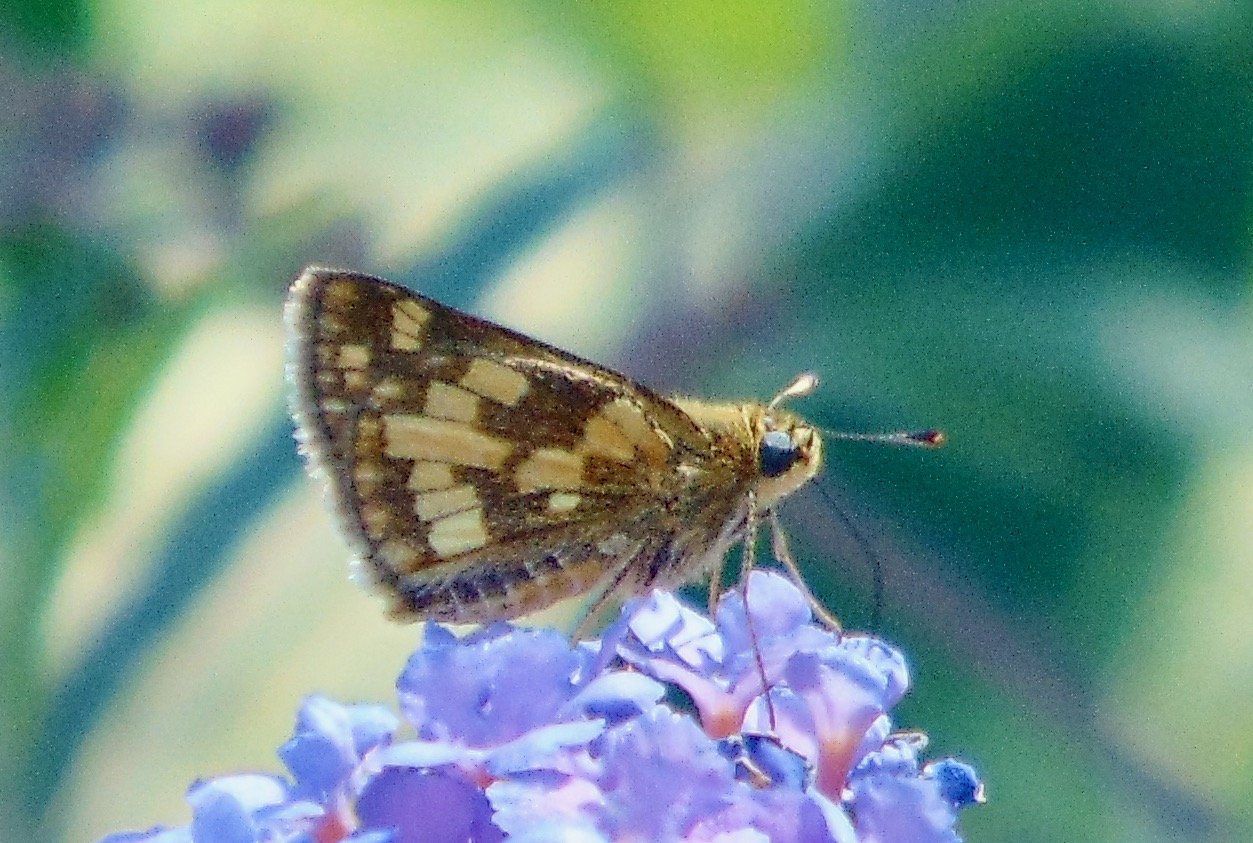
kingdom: Animalia
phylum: Arthropoda
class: Insecta
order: Lepidoptera
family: Hesperiidae
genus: Polites
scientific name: Polites coras
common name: Peck's Skipper
